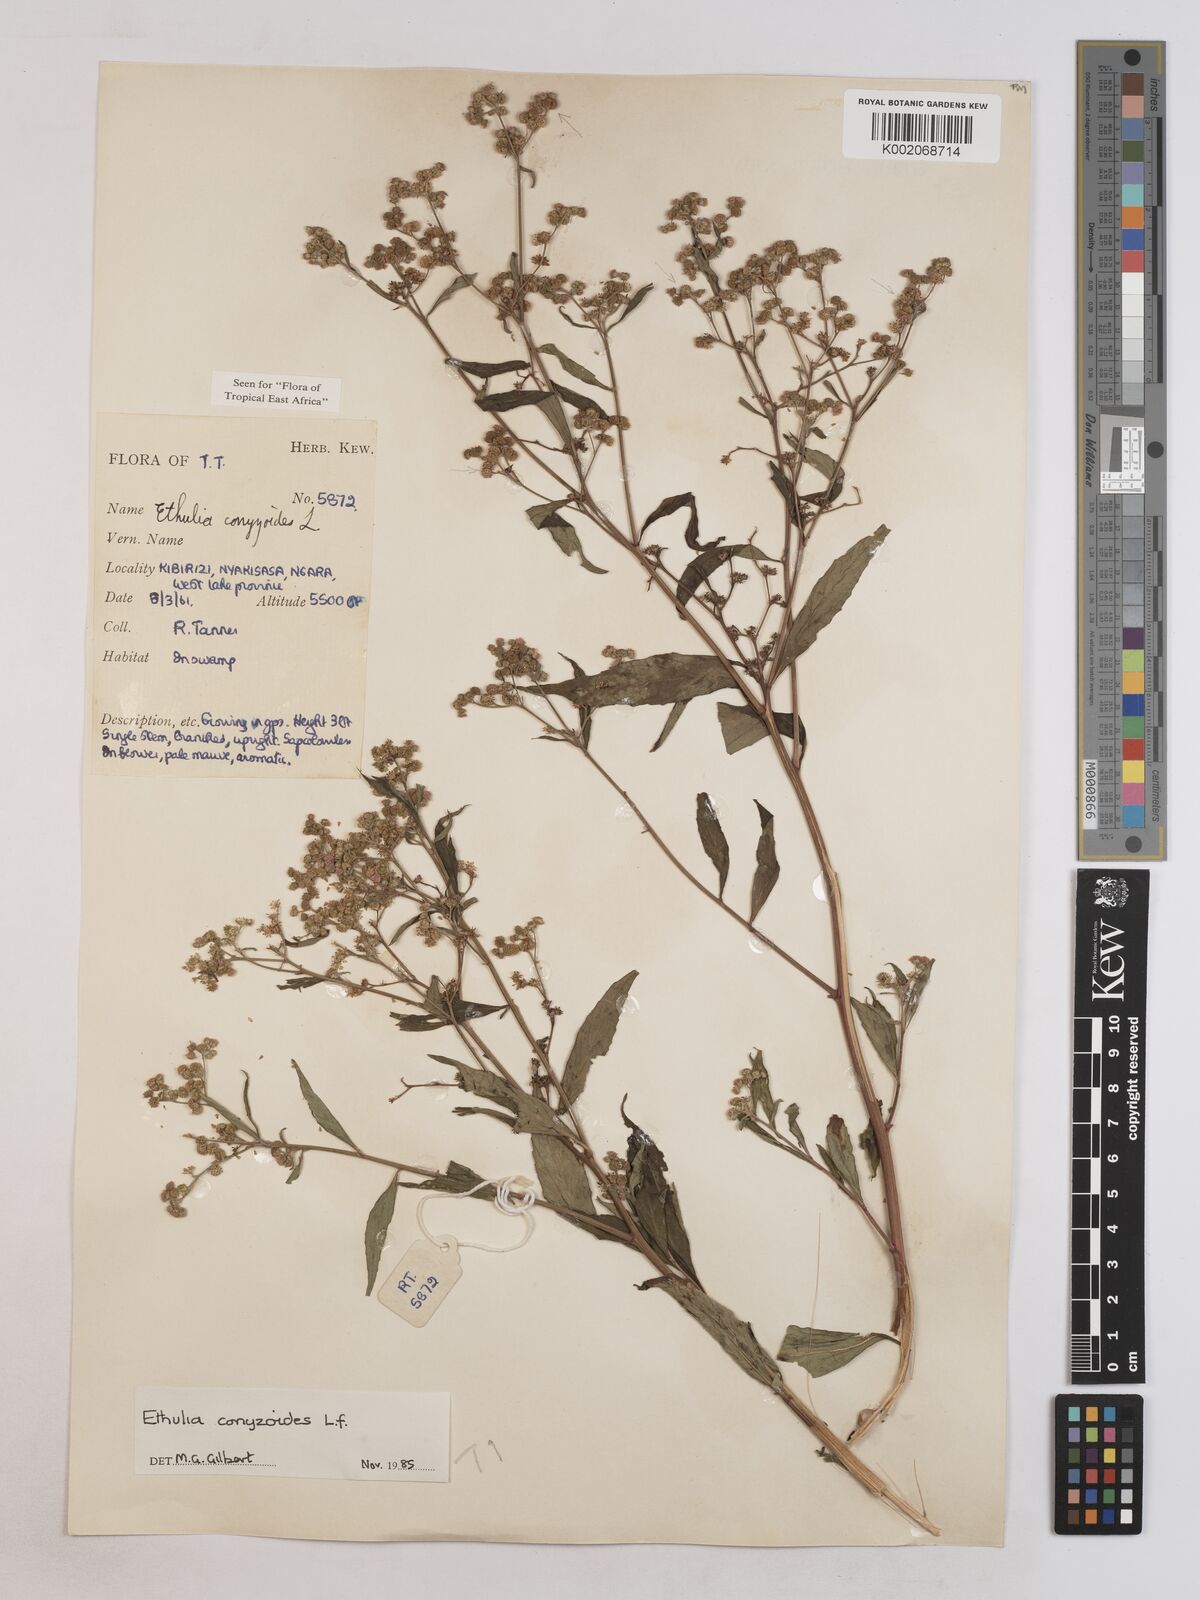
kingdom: Plantae
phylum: Tracheophyta
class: Magnoliopsida
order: Asterales
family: Asteraceae
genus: Ethulia
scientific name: Ethulia
